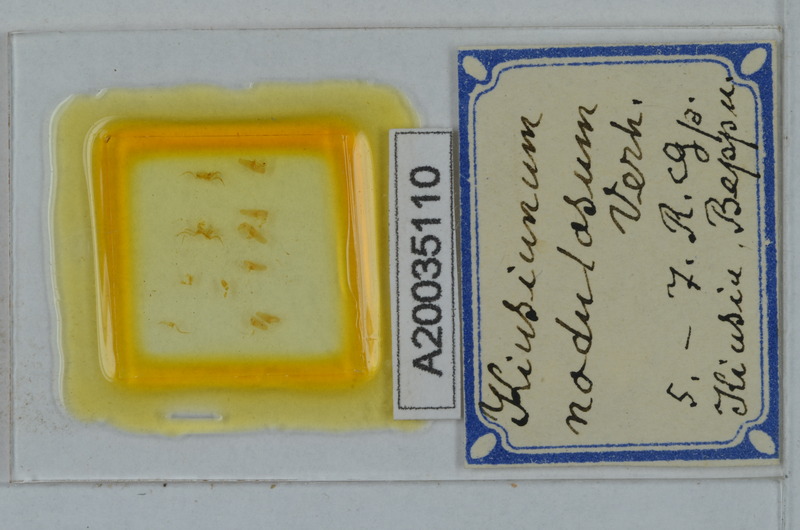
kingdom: Animalia
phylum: Arthropoda
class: Diplopoda
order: Polydesmida
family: Cryptodesmidae
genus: Kiusiunum
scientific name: Kiusiunum nodulosum
